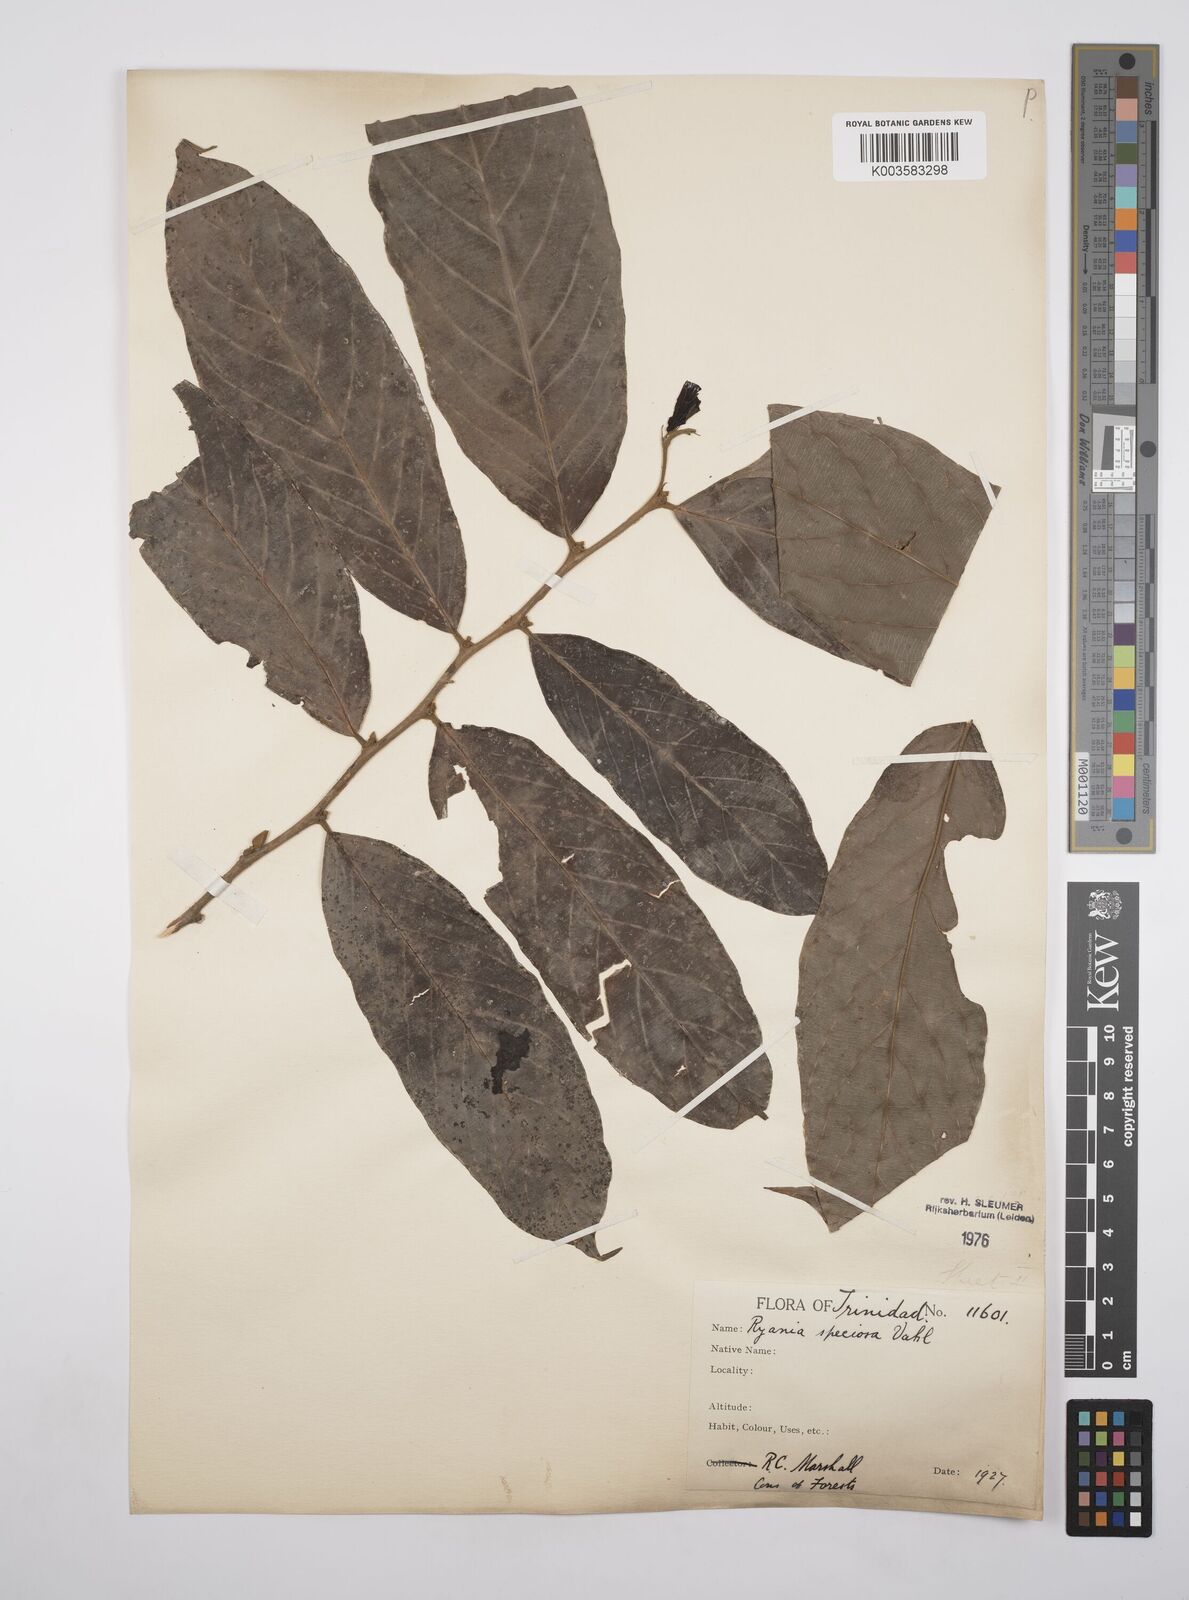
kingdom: Plantae
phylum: Tracheophyta
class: Magnoliopsida
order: Malpighiales
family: Salicaceae
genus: Ryania
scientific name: Ryania speciosa
